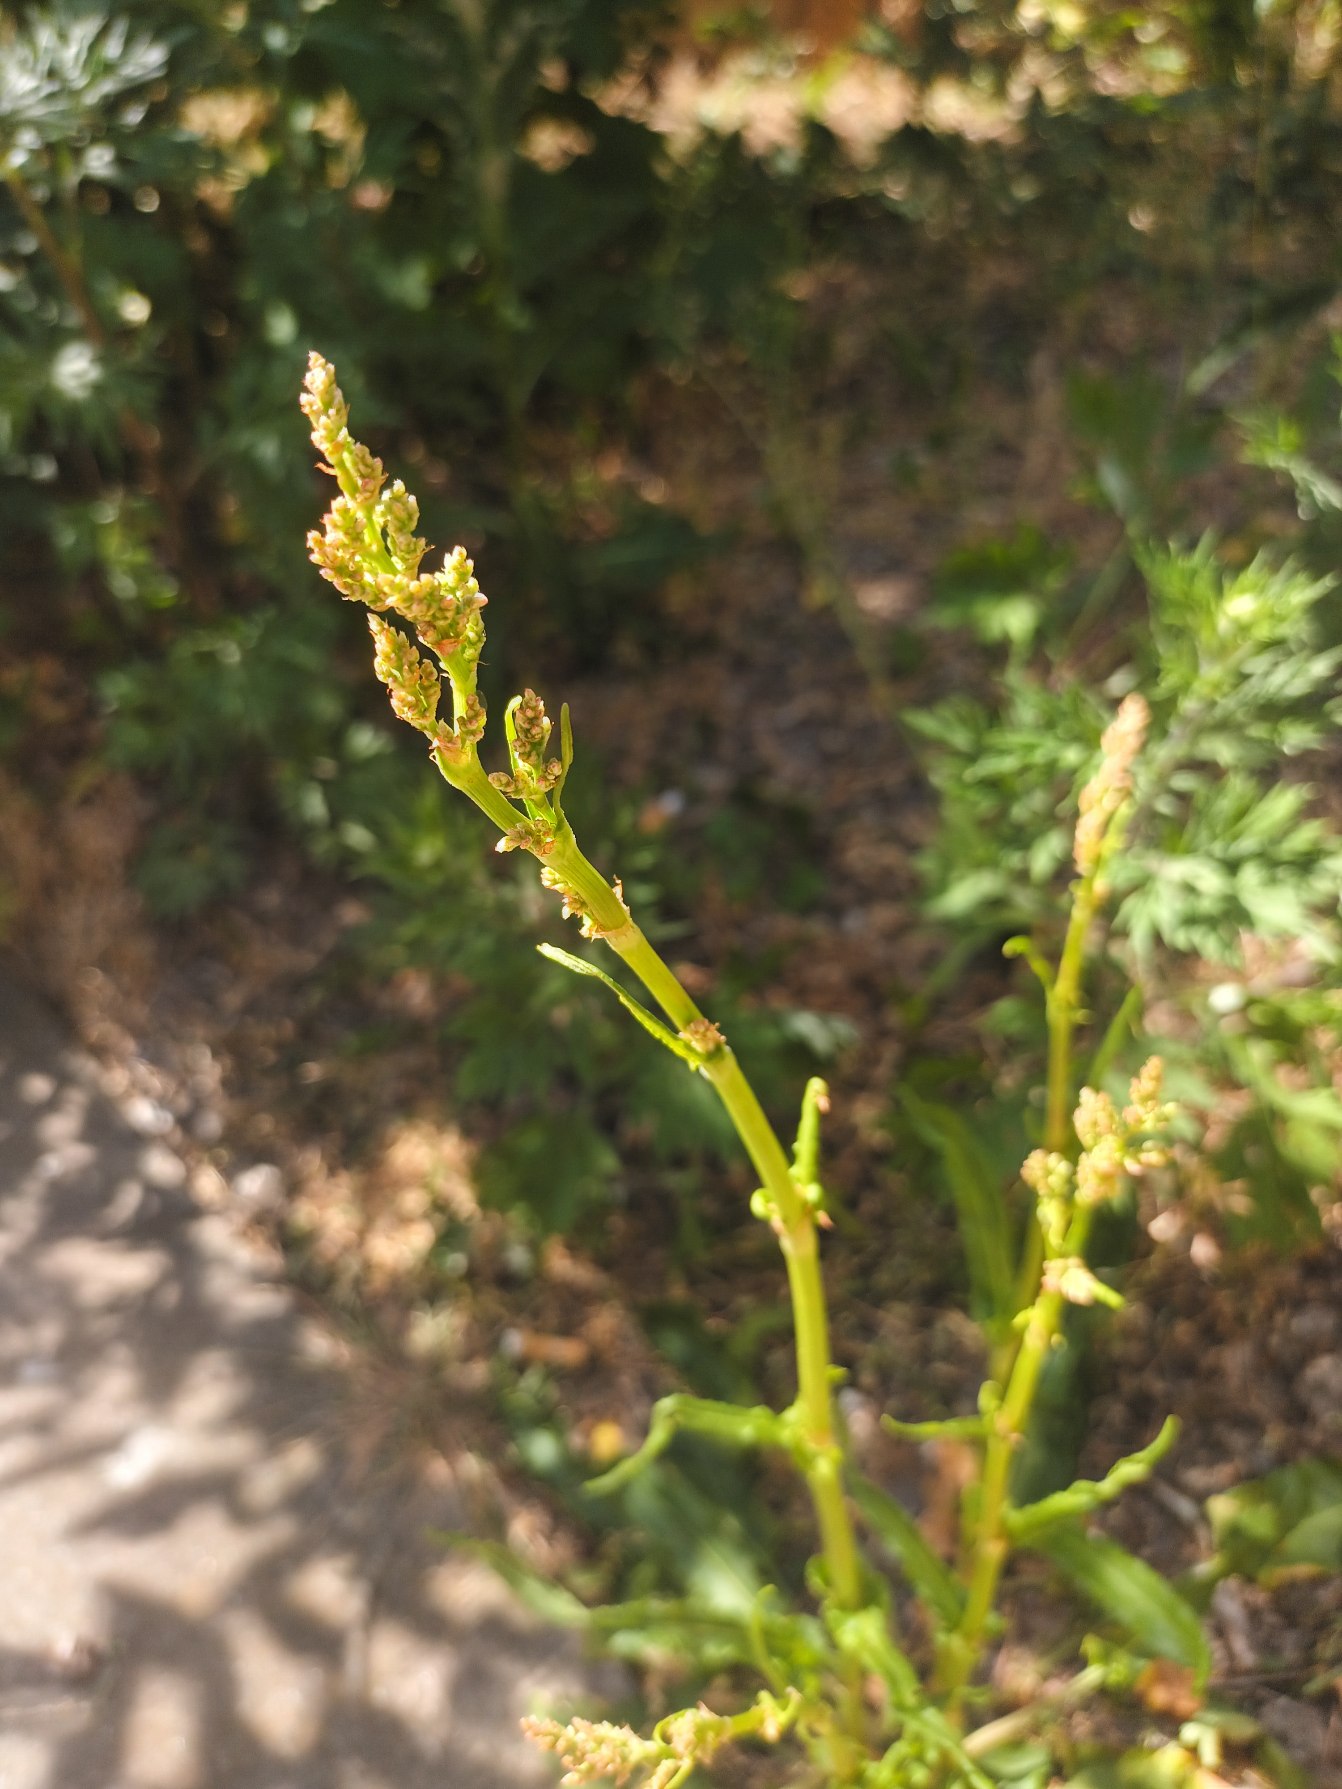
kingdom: Plantae
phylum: Tracheophyta
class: Magnoliopsida
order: Caryophyllales
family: Polygonaceae
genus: Rumex
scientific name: Rumex rugosus
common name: Have-syre
